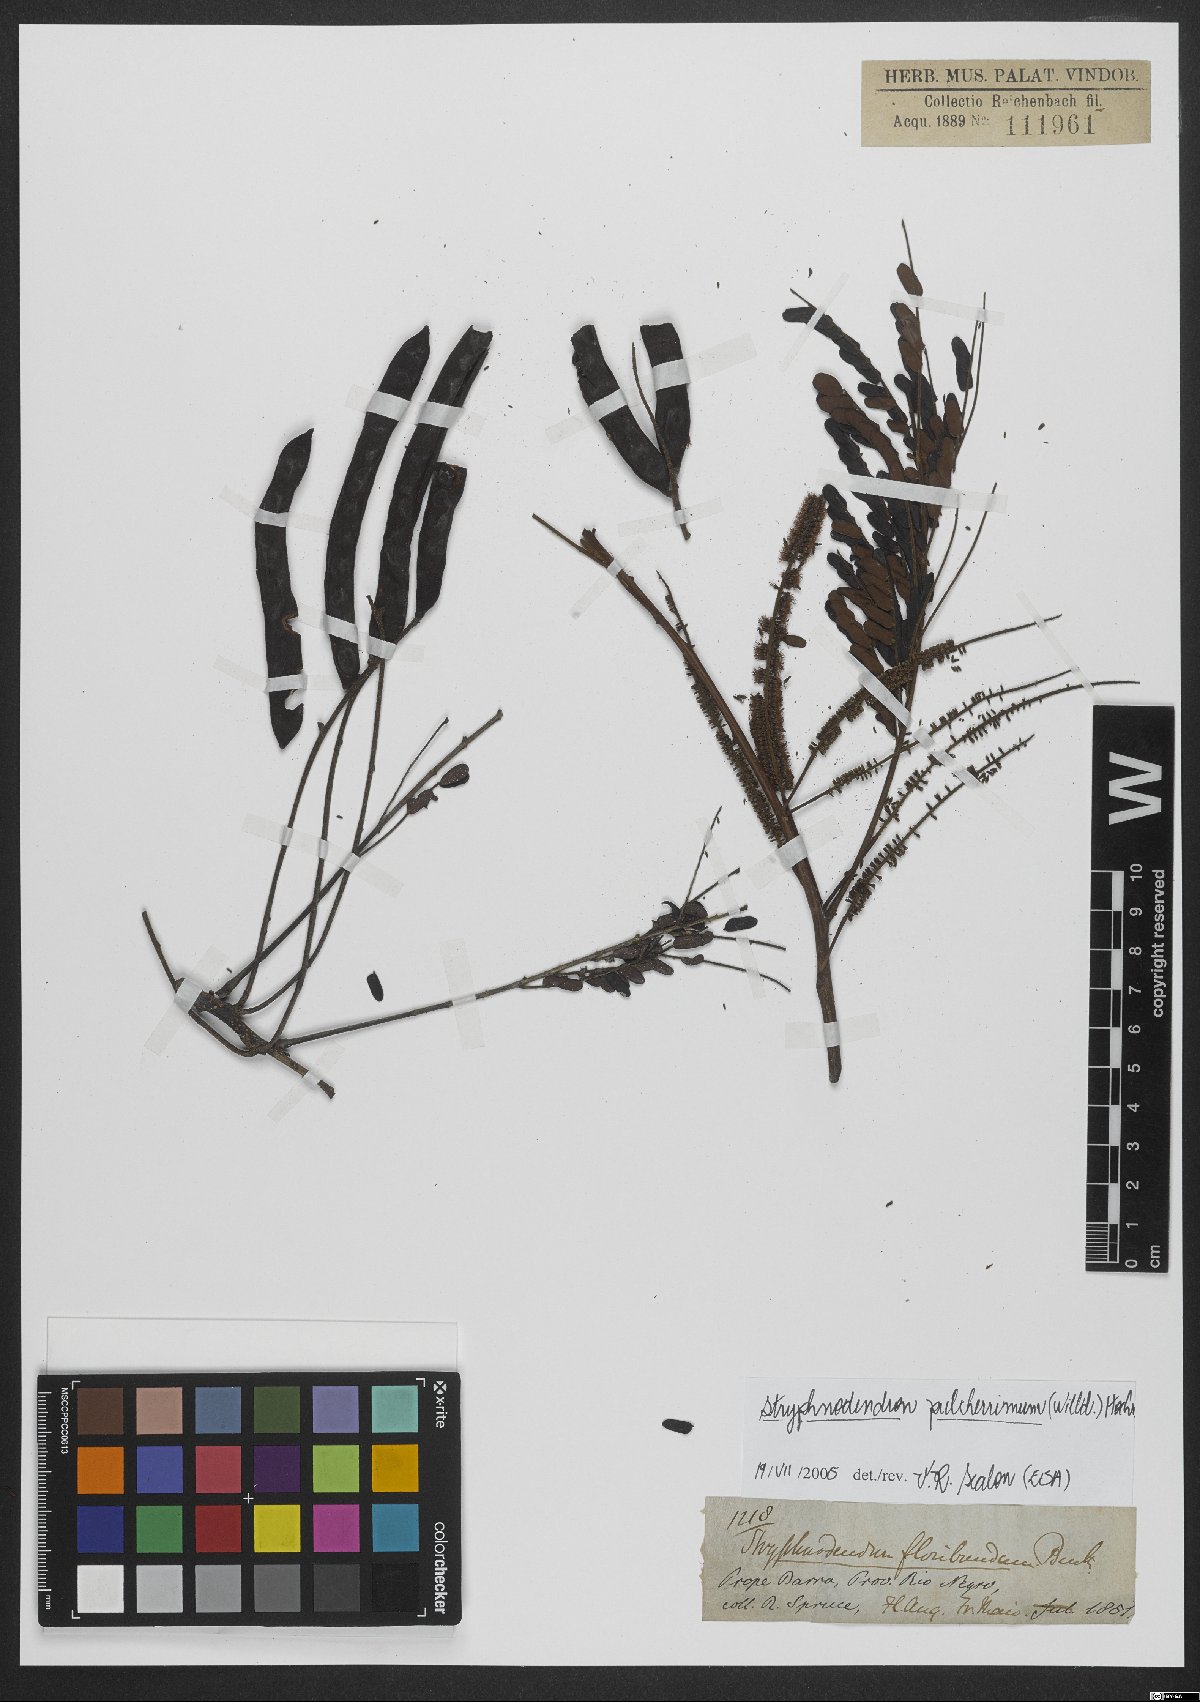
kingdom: Plantae
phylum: Tracheophyta
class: Magnoliopsida
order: Fabales
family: Fabaceae
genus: Stryphnodendron
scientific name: Stryphnodendron pulcherrimum
